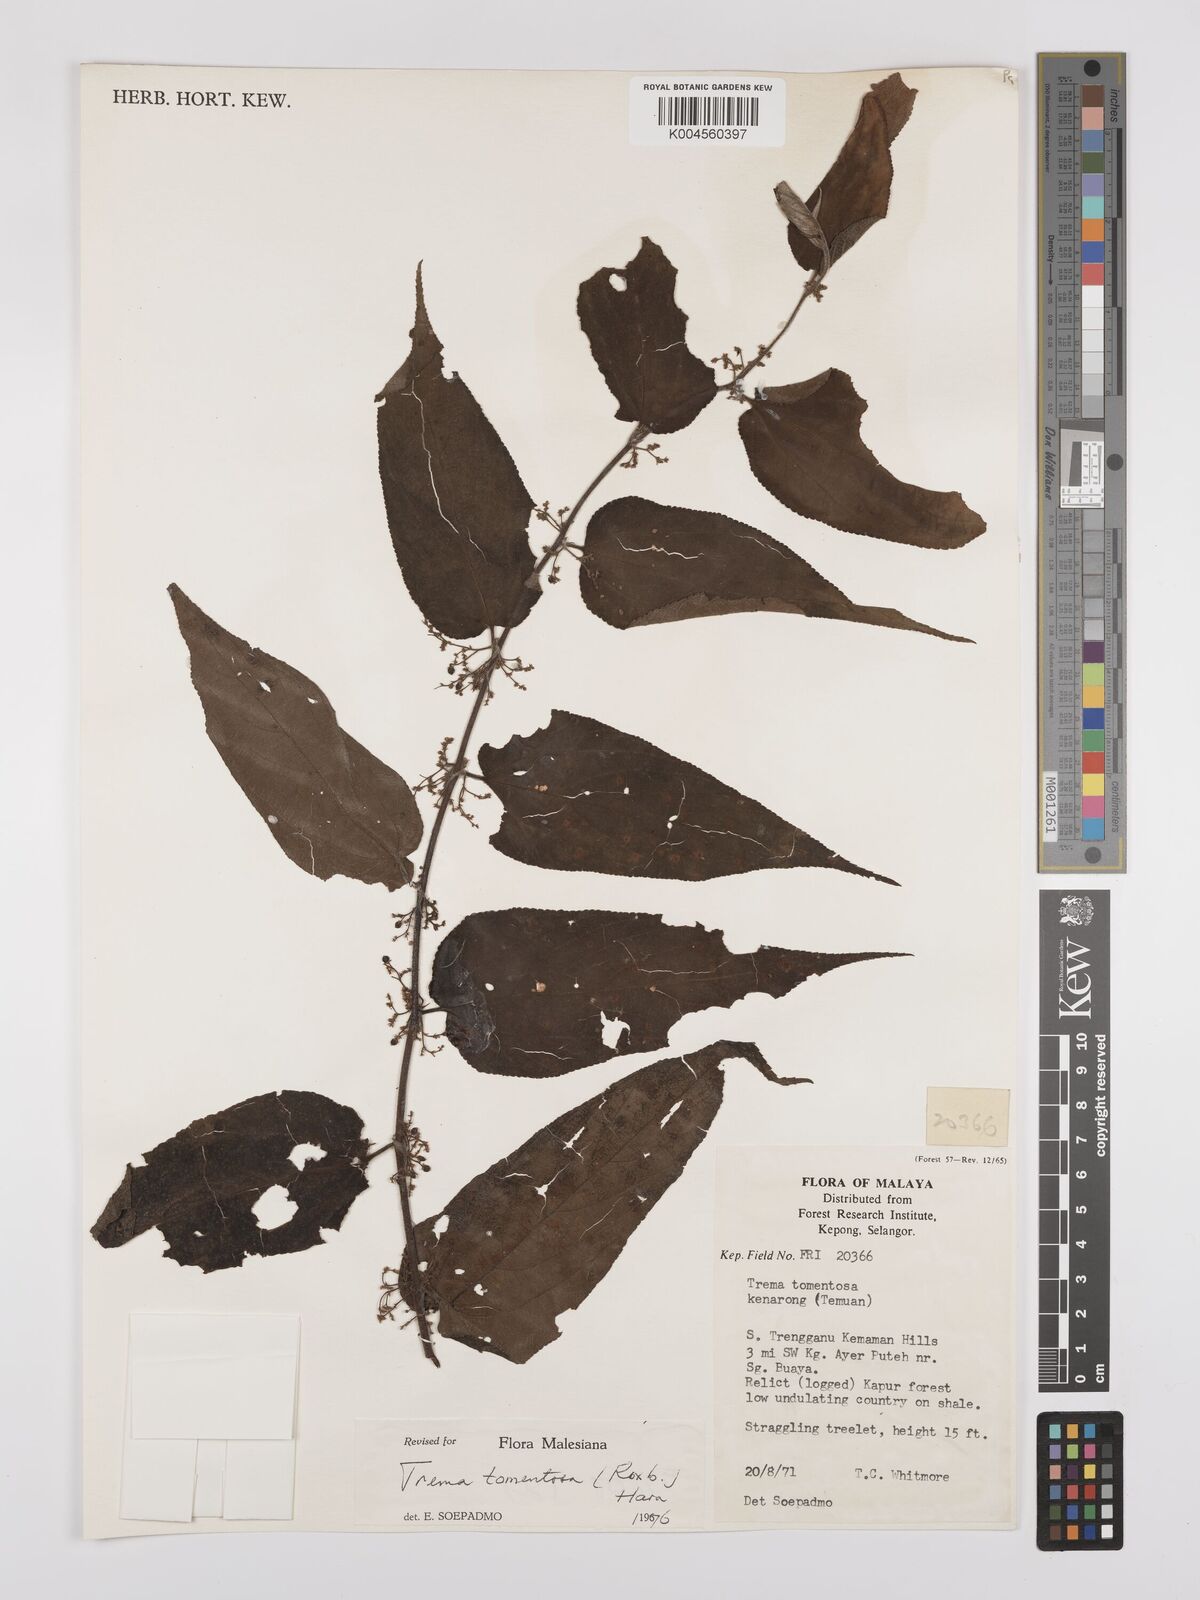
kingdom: Plantae
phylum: Tracheophyta
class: Magnoliopsida
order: Rosales
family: Cannabaceae
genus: Trema
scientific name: Trema tomentosum
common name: Peach-leaf-poisonbush
